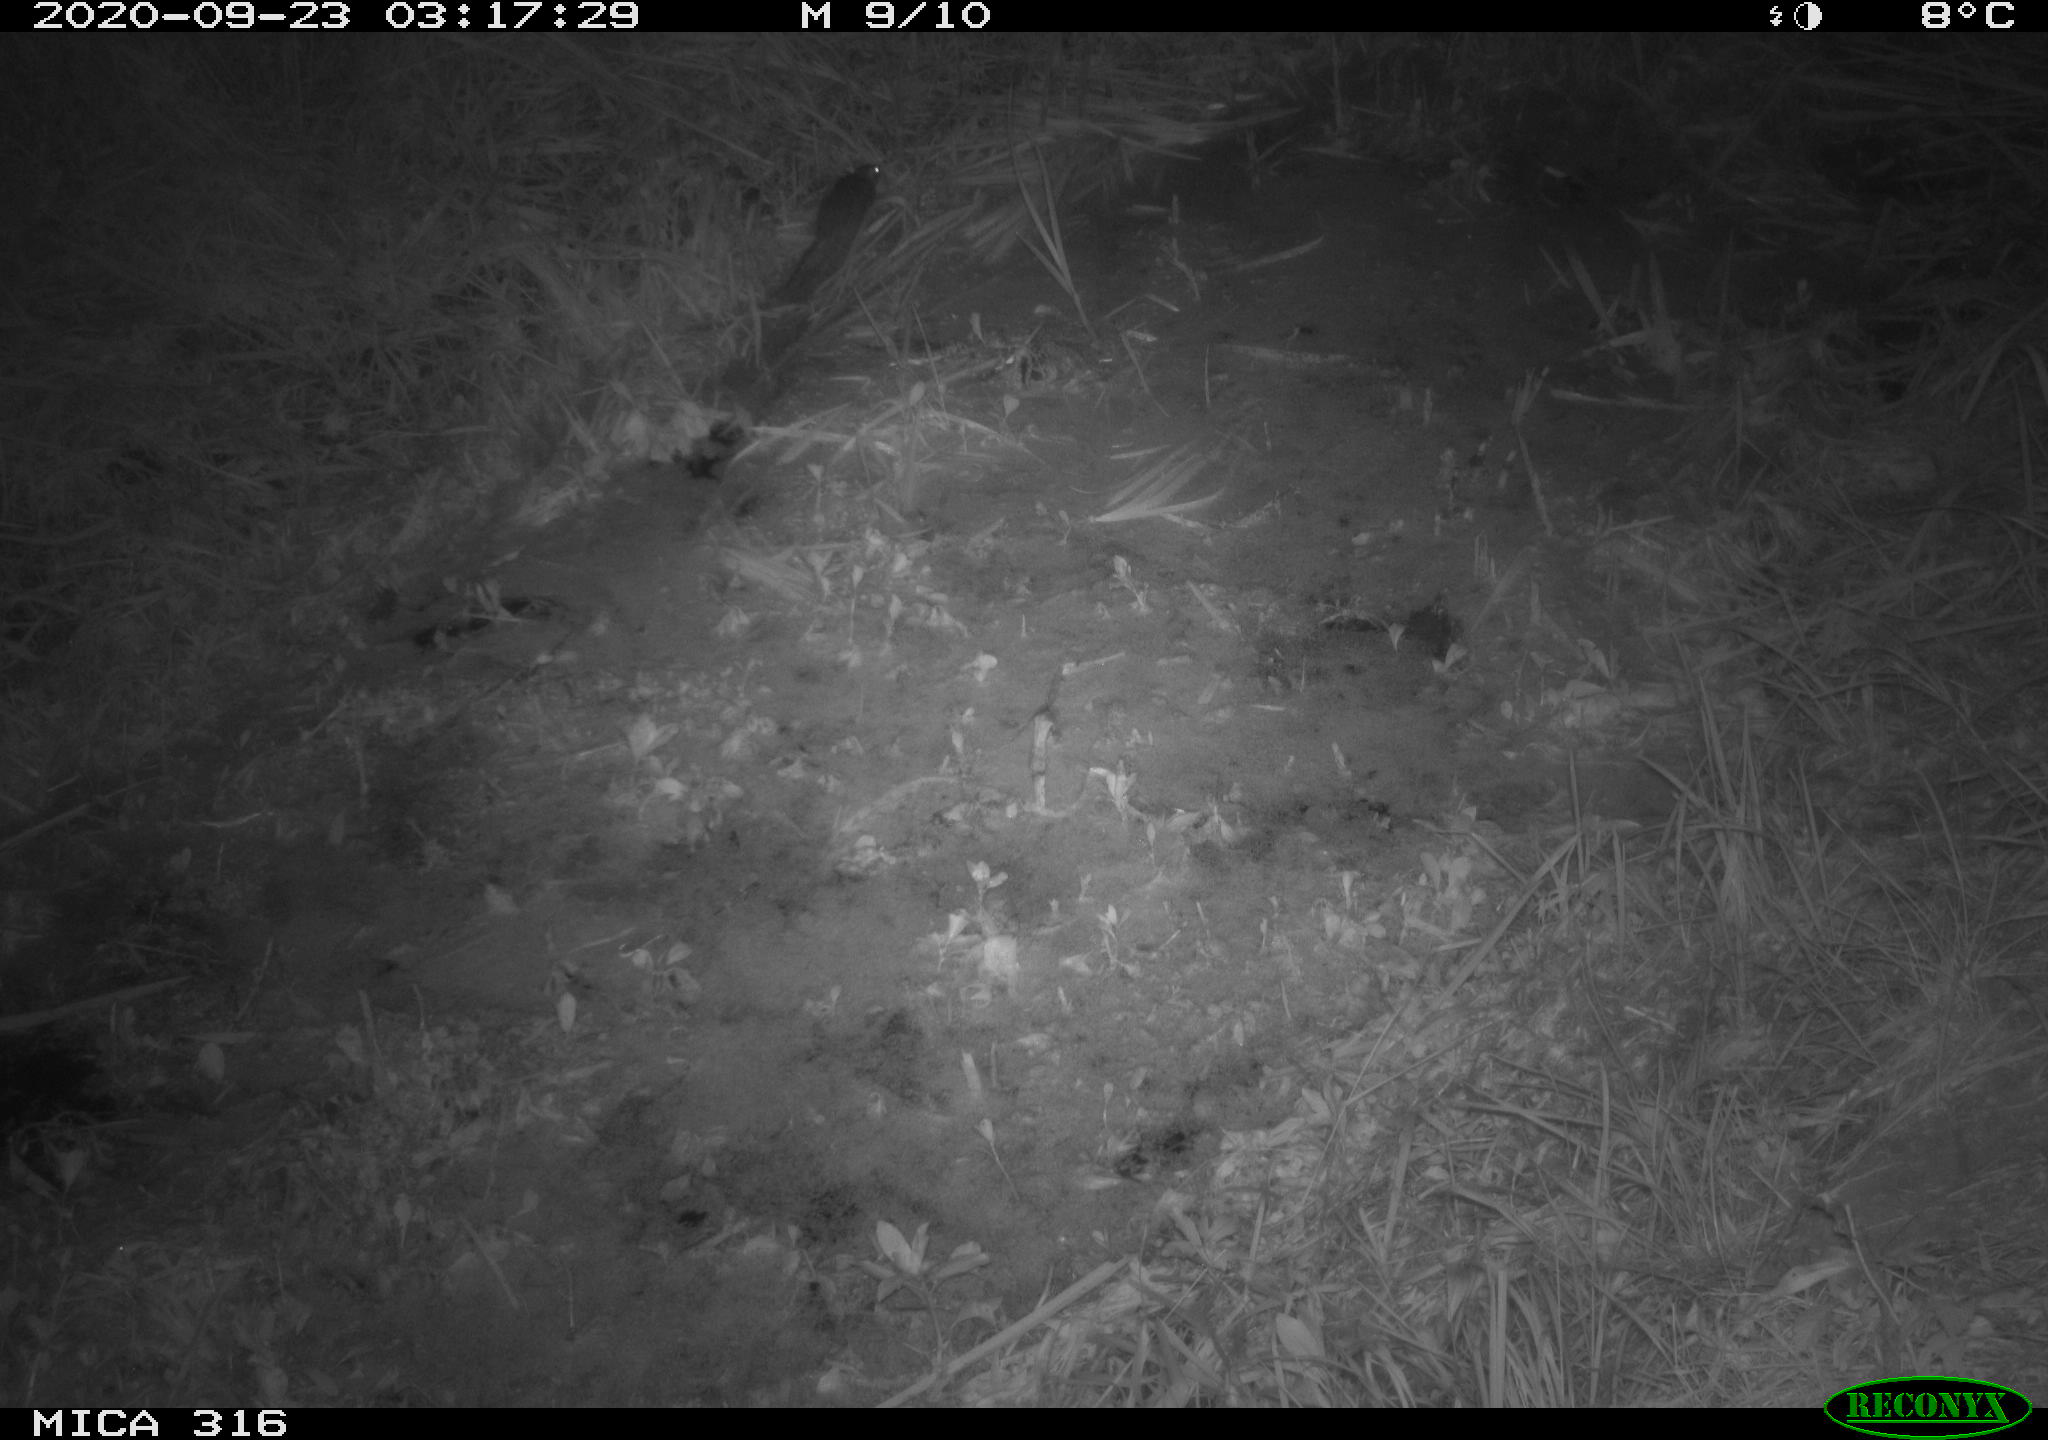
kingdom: Animalia
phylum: Chordata
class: Mammalia
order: Rodentia
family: Muridae
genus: Rattus
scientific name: Rattus norvegicus
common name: Brown rat
